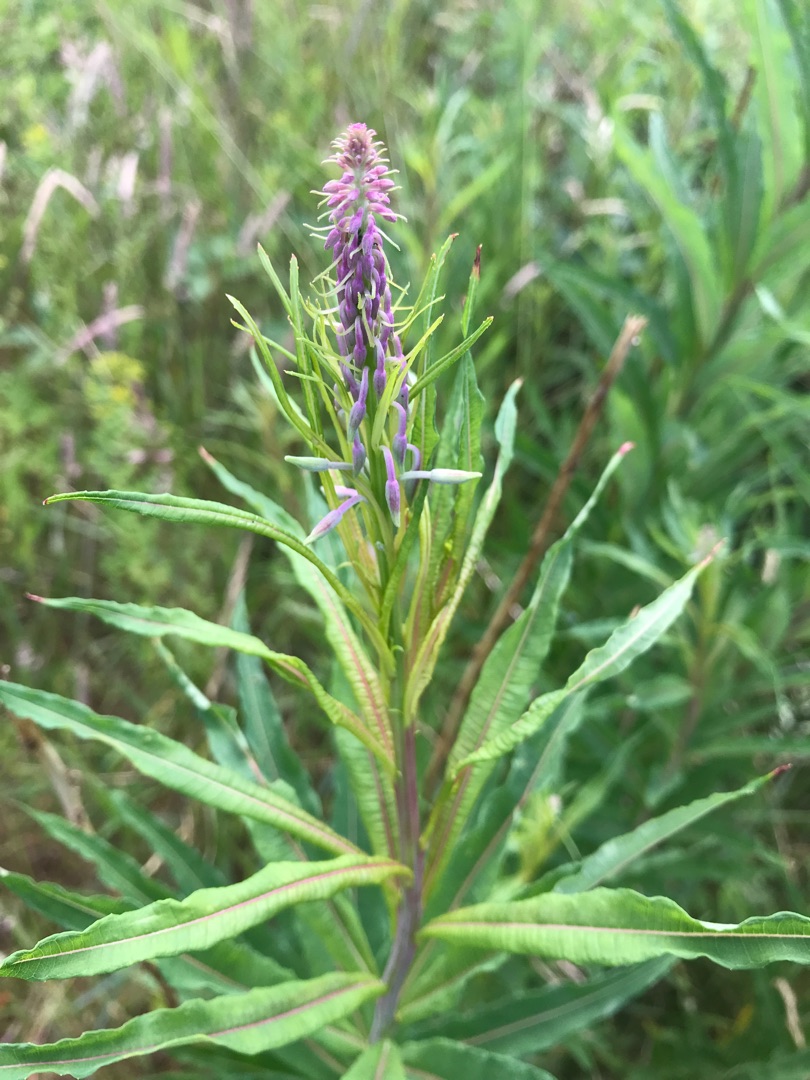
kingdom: Plantae
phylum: Tracheophyta
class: Magnoliopsida
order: Myrtales
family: Onagraceae
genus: Chamaenerion
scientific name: Chamaenerion angustifolium
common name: Gederams
